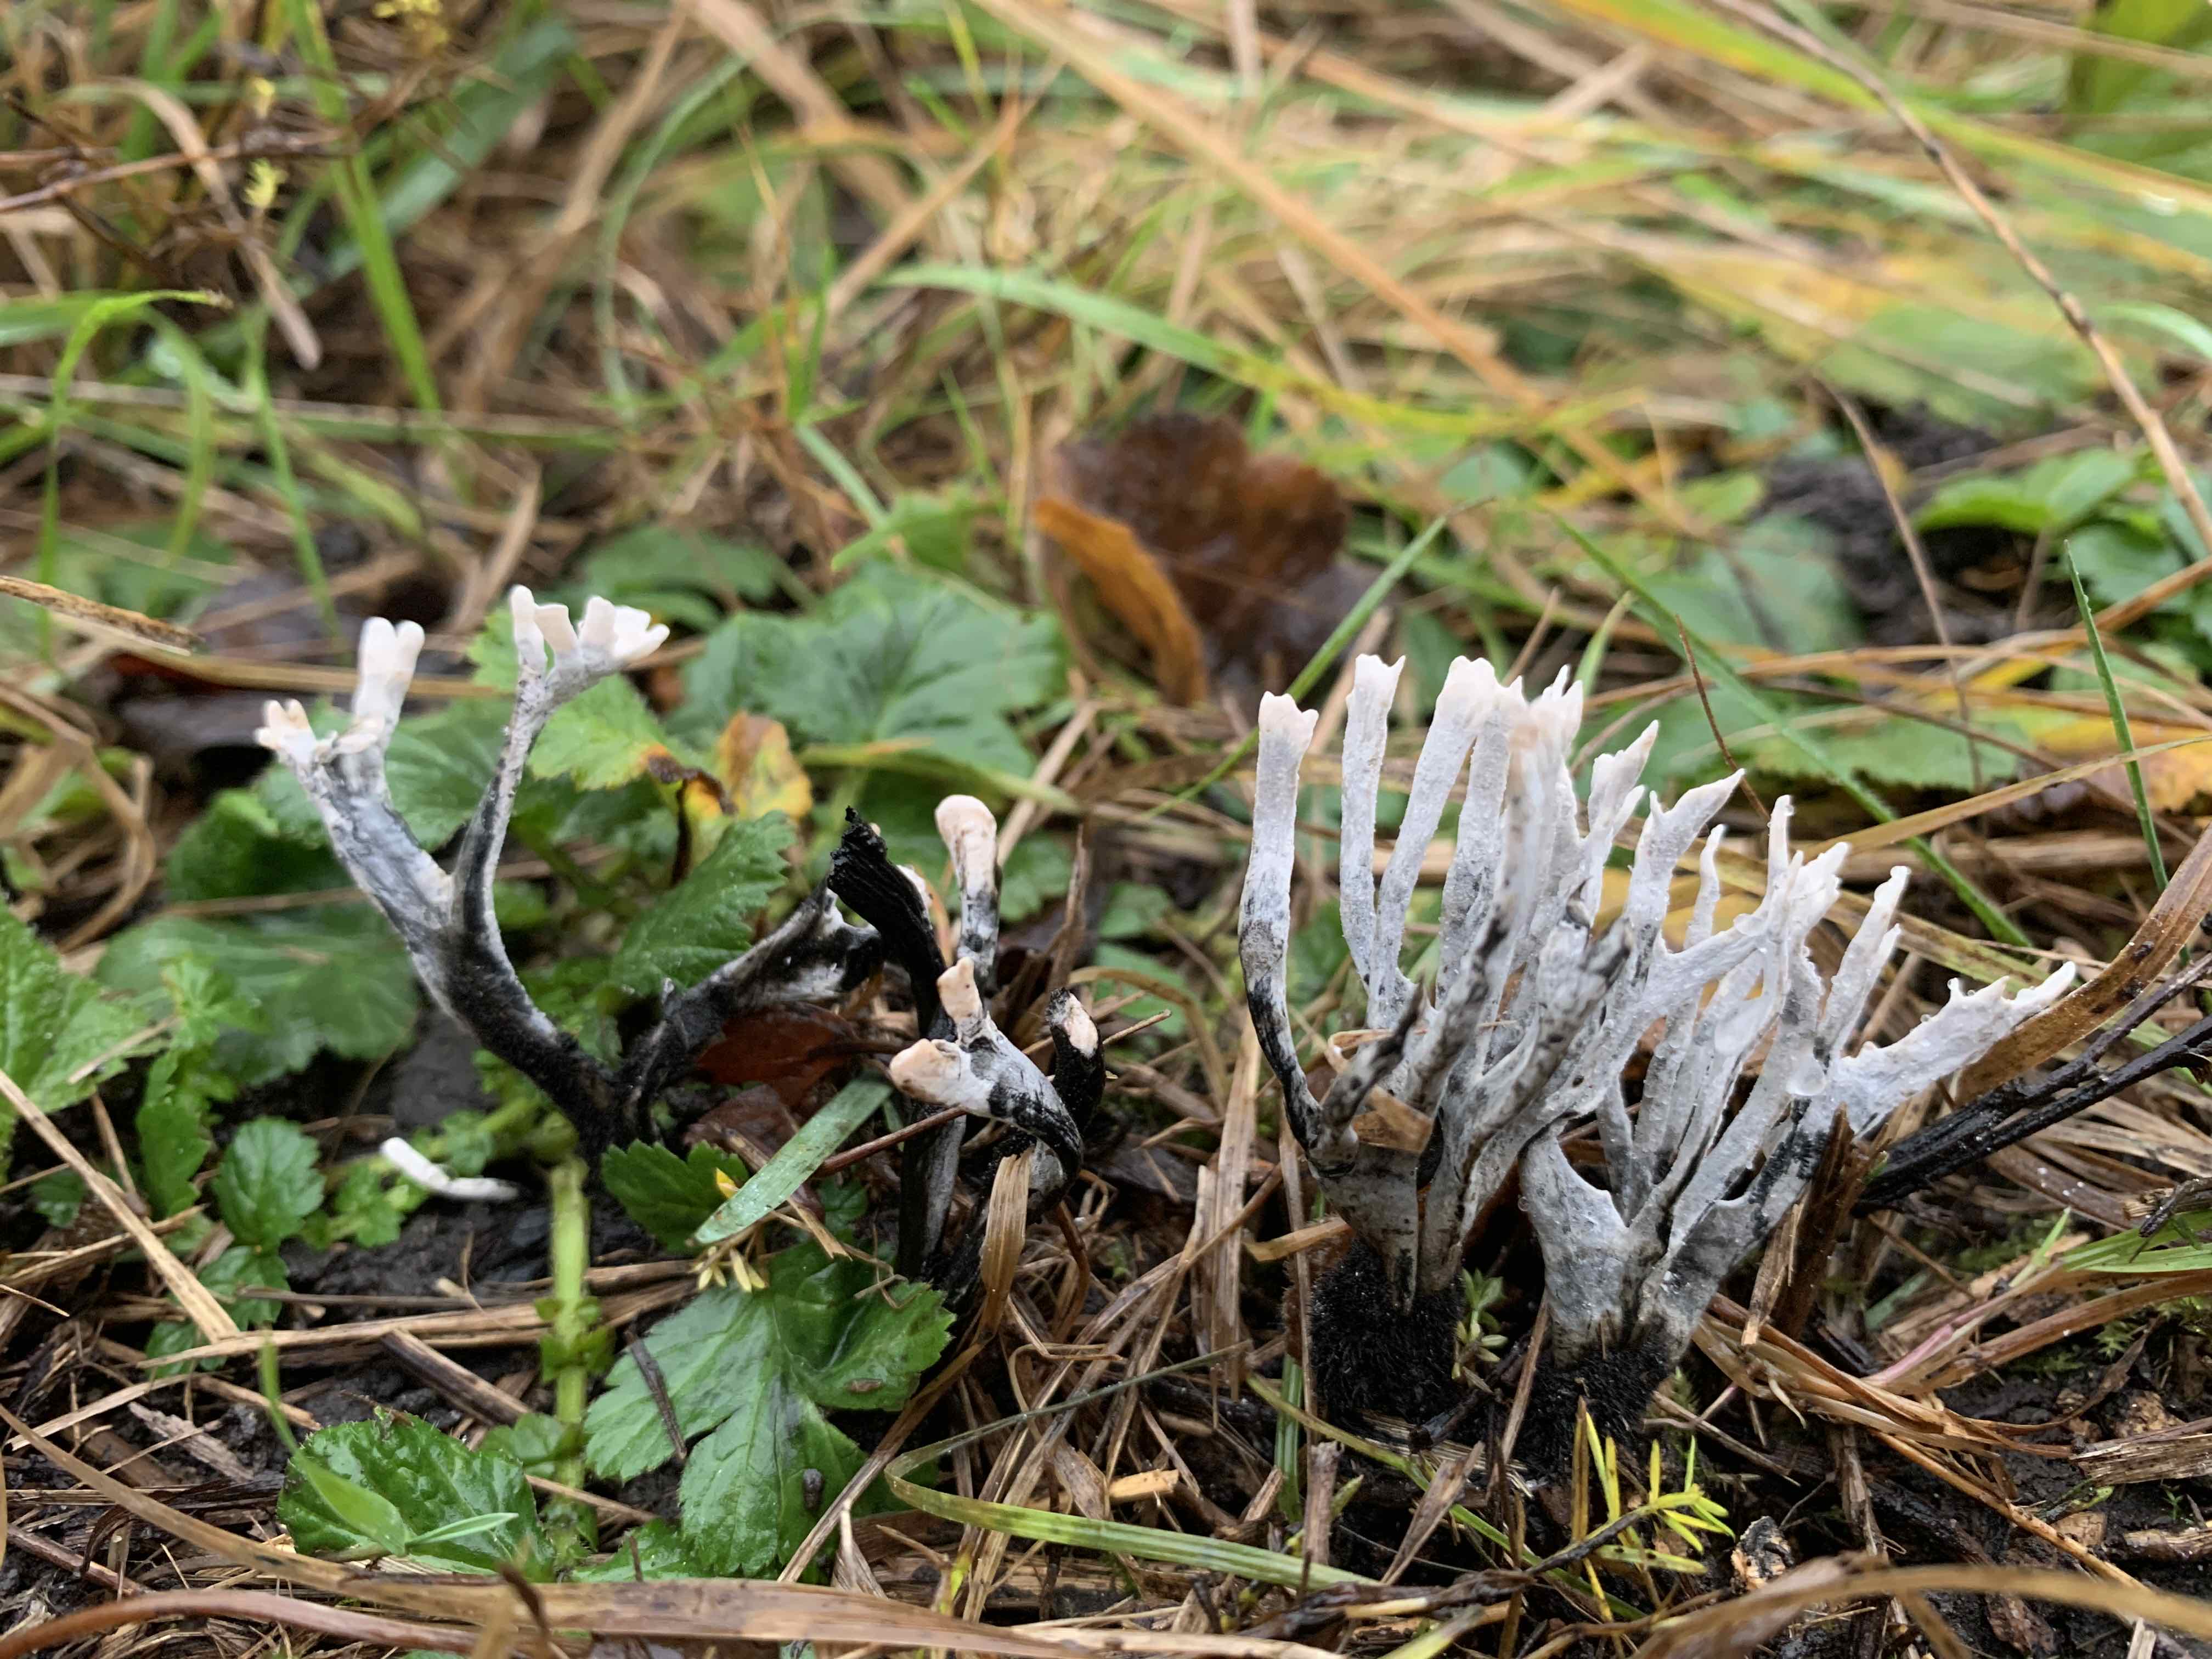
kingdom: Fungi
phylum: Ascomycota
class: Sordariomycetes
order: Xylariales
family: Xylariaceae
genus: Xylaria
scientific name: Xylaria hypoxylon
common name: grenet stødsvamp
